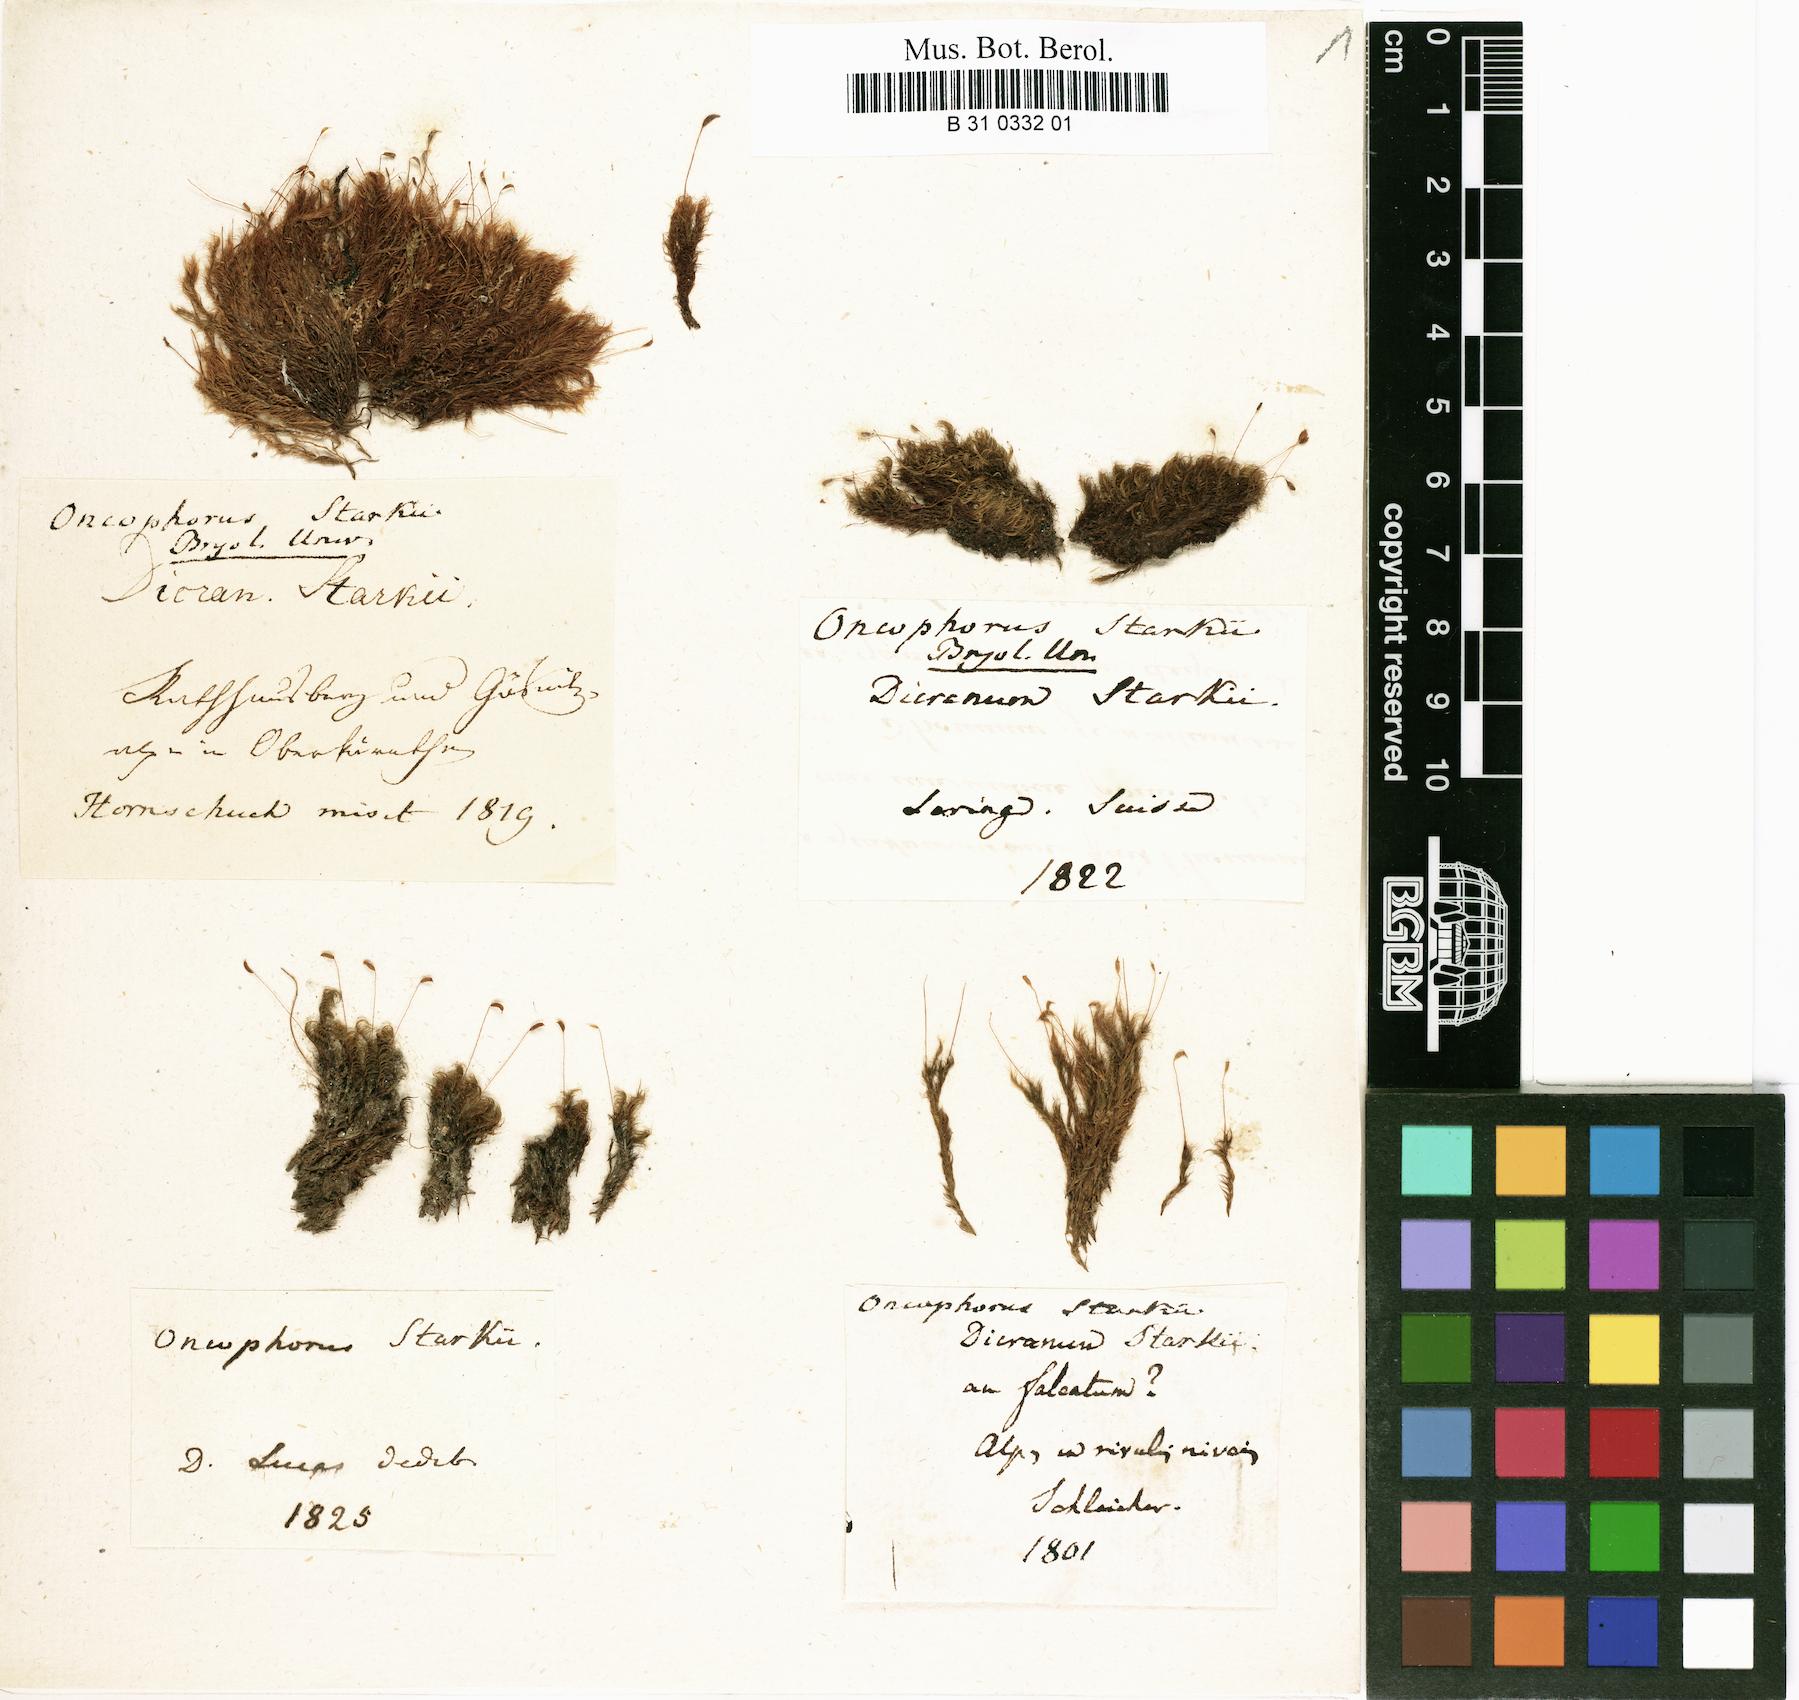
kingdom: Plantae
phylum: Bryophyta
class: Bryopsida
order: Dicranales
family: Rhabdoweisiaceae
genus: Arctoa
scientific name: Arctoa starkei
